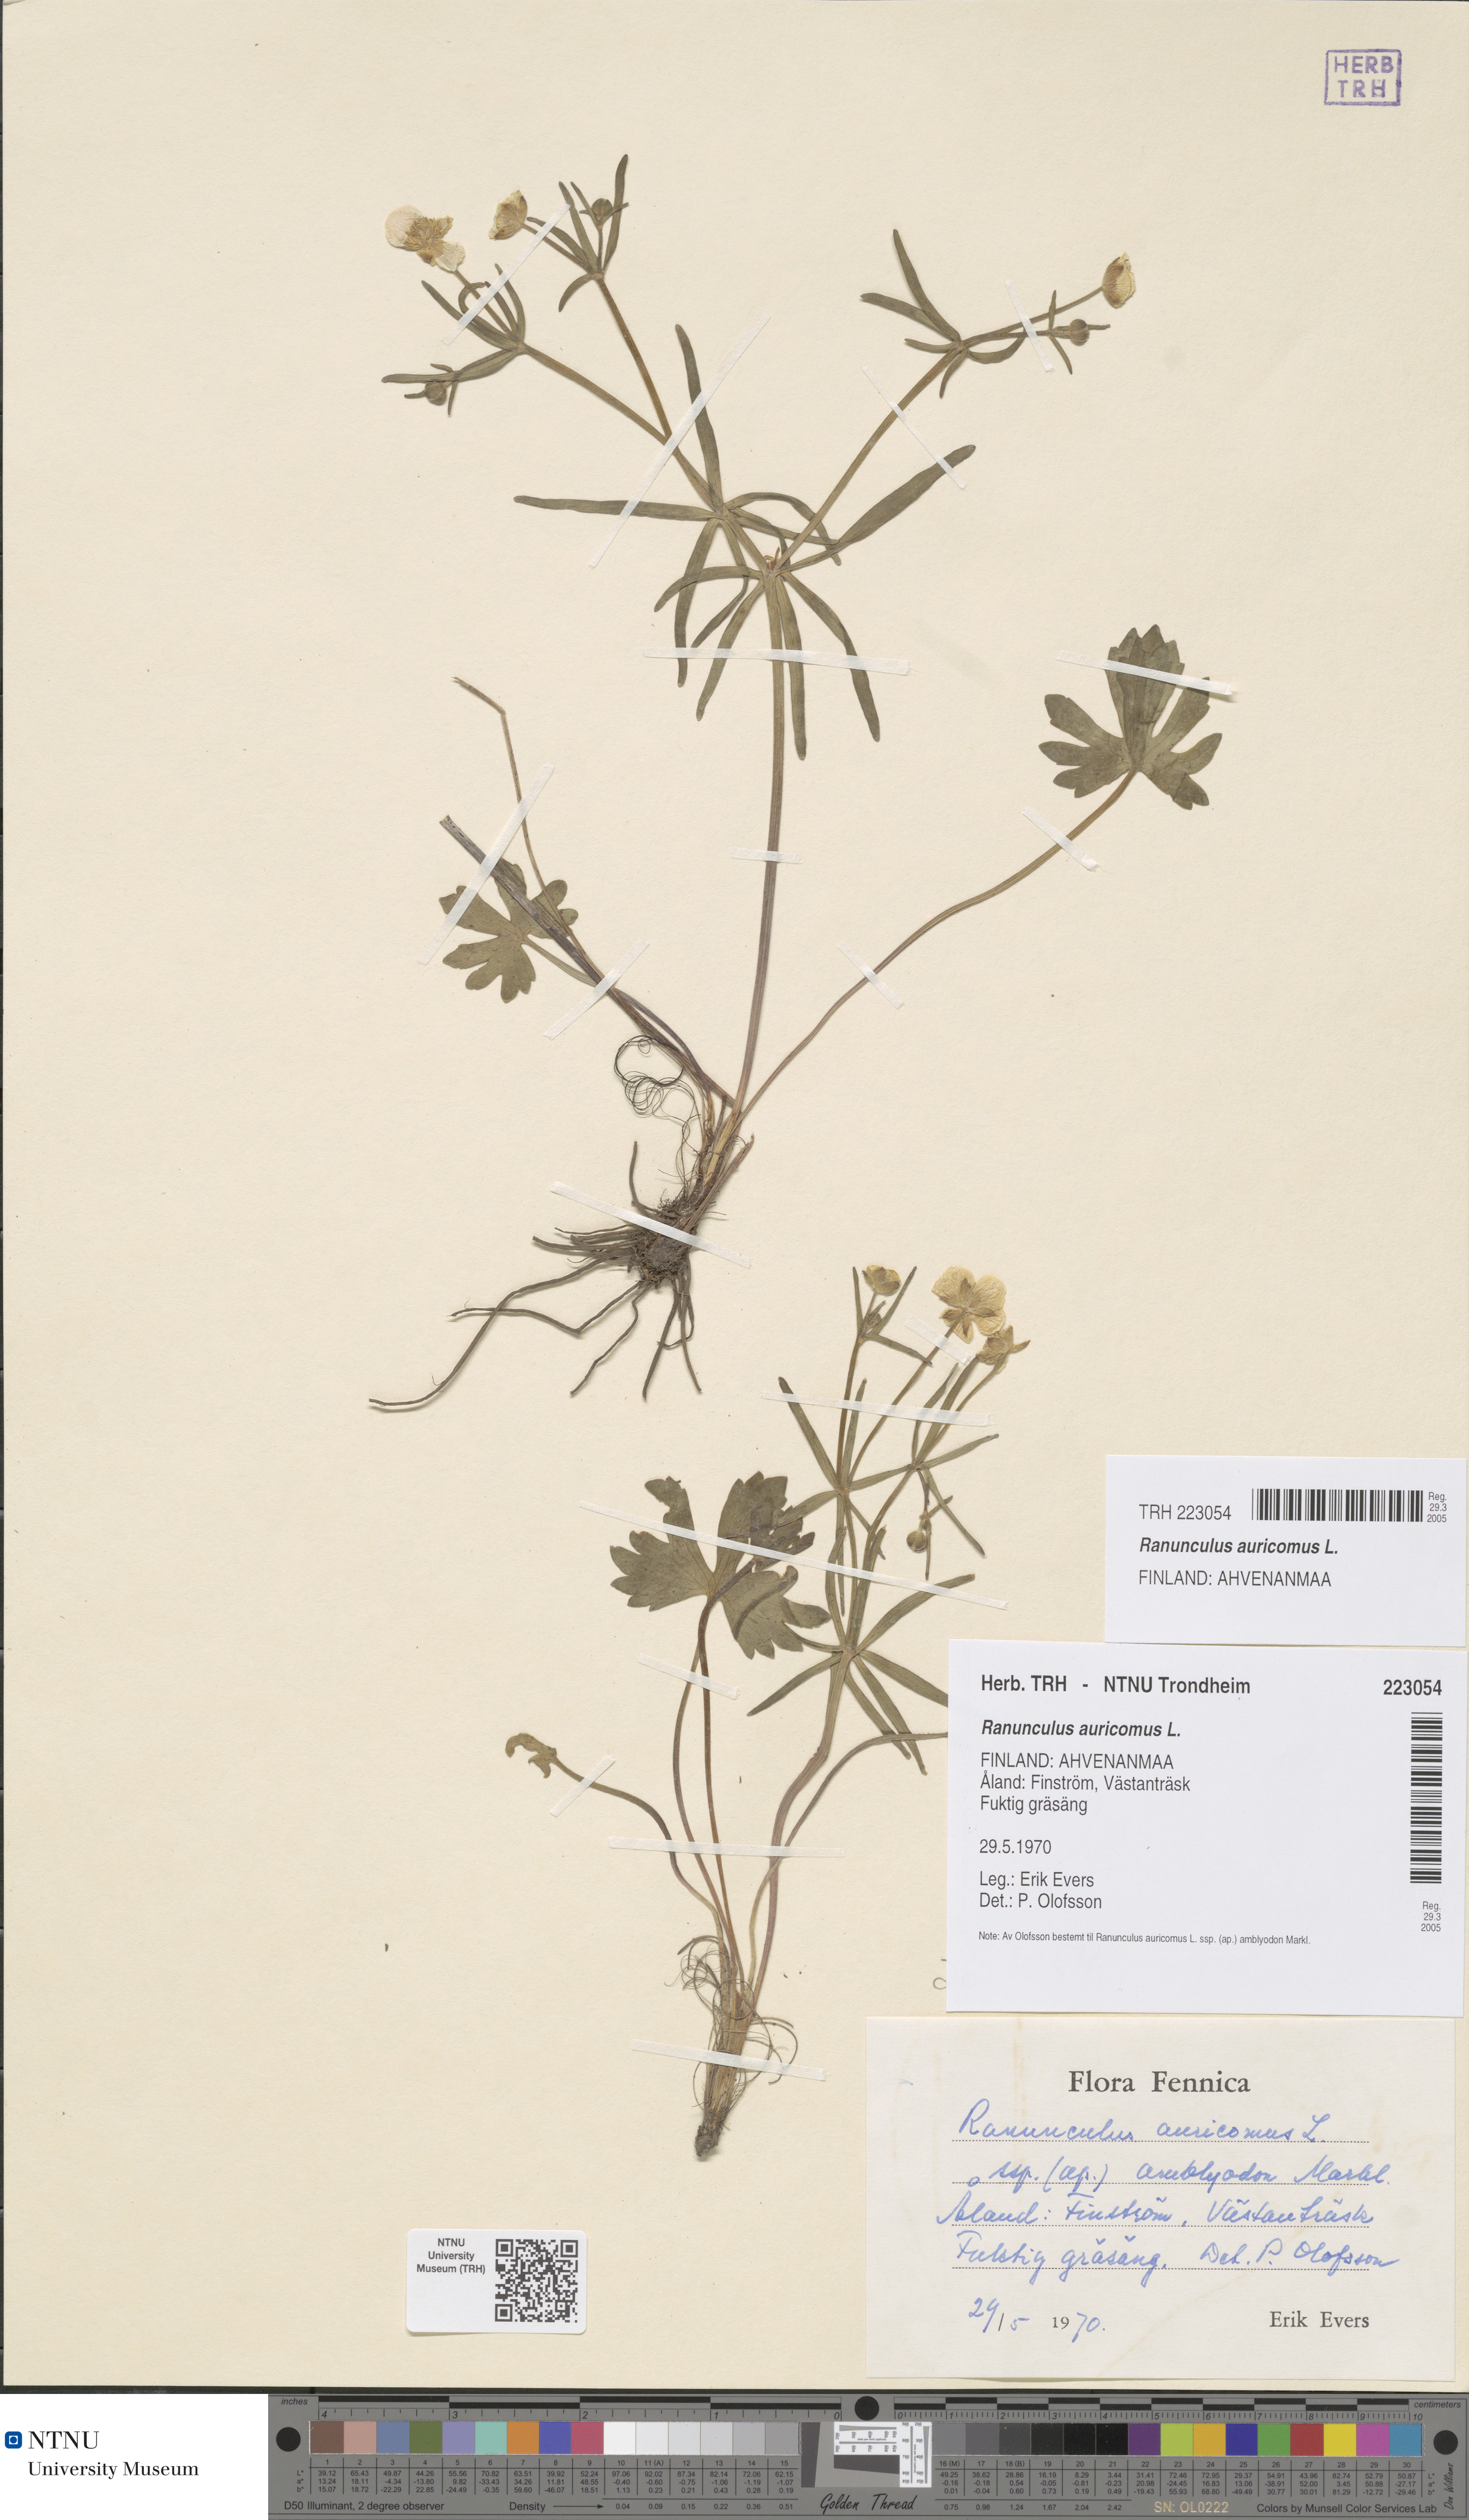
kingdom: Plantae
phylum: Tracheophyta
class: Magnoliopsida
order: Ranunculales
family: Ranunculaceae
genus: Ranunculus
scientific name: Ranunculus auricomus
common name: Goldilocks buttercup
